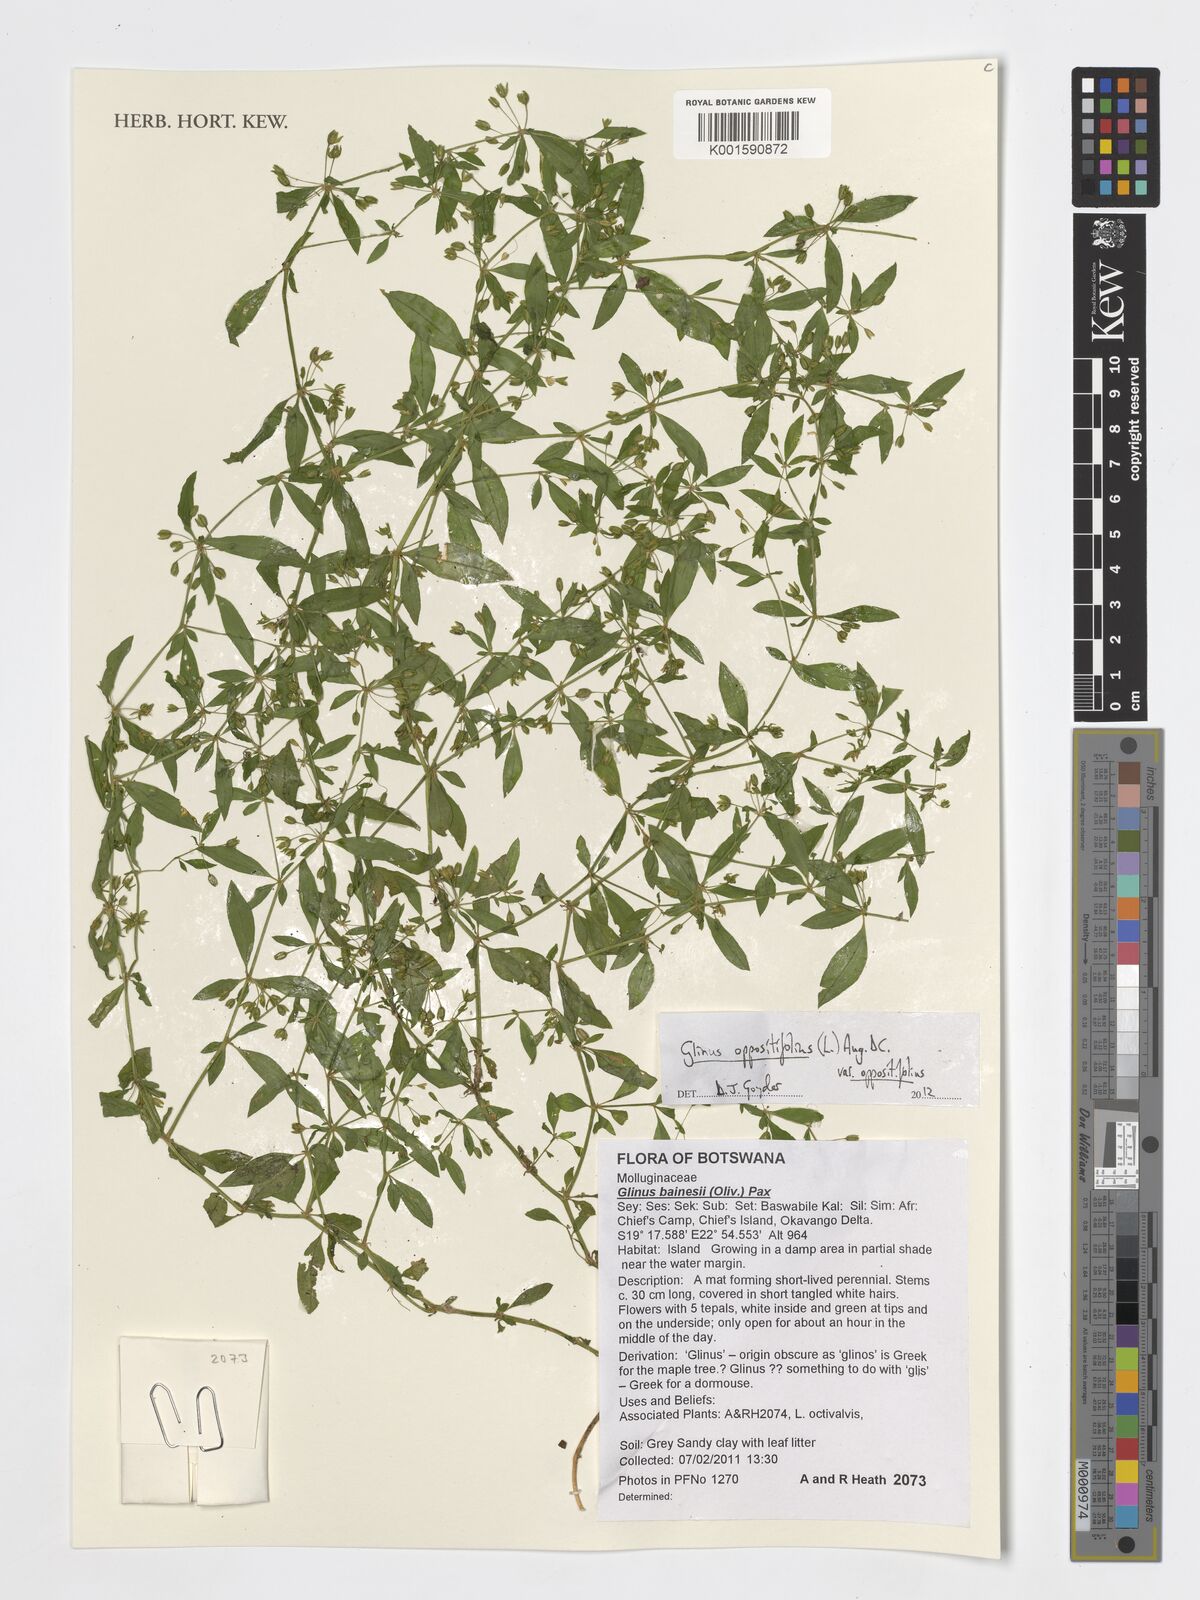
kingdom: Plantae
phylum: Tracheophyta
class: Magnoliopsida
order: Caryophyllales
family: Molluginaceae
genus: Glinus
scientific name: Glinus bainesii
